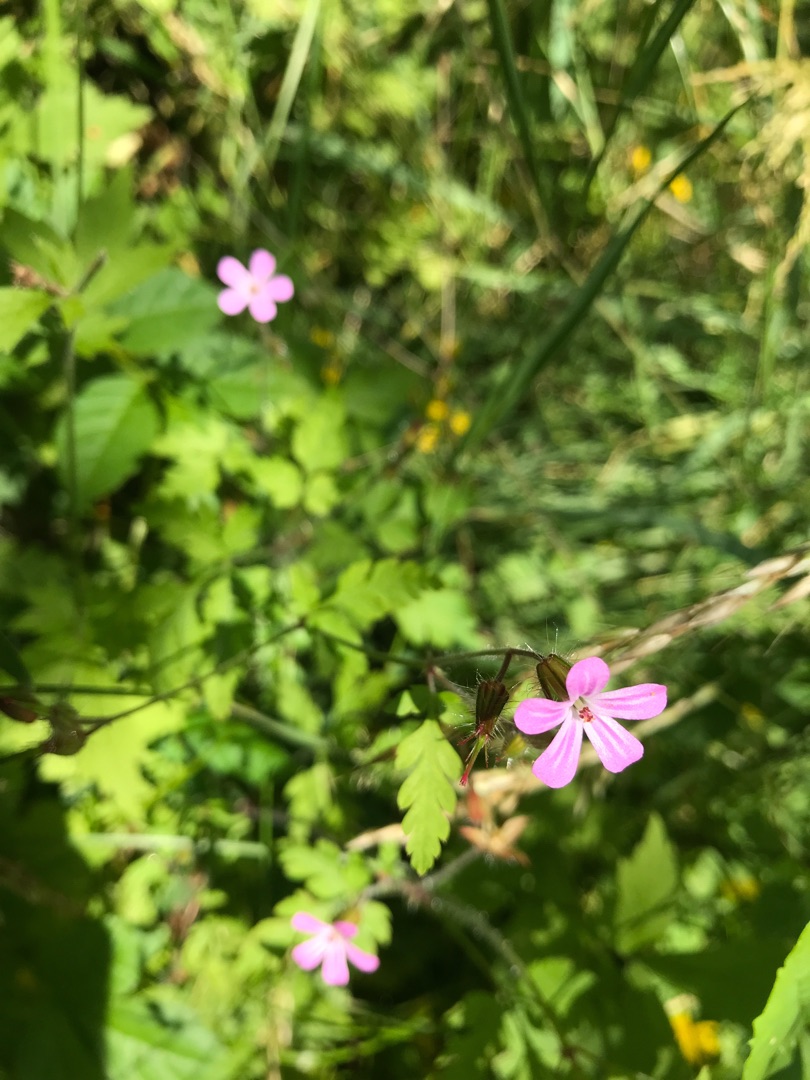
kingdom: Plantae
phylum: Tracheophyta
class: Magnoliopsida
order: Geraniales
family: Geraniaceae
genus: Geranium
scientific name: Geranium robertianum
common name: Stinkende storkenæb
